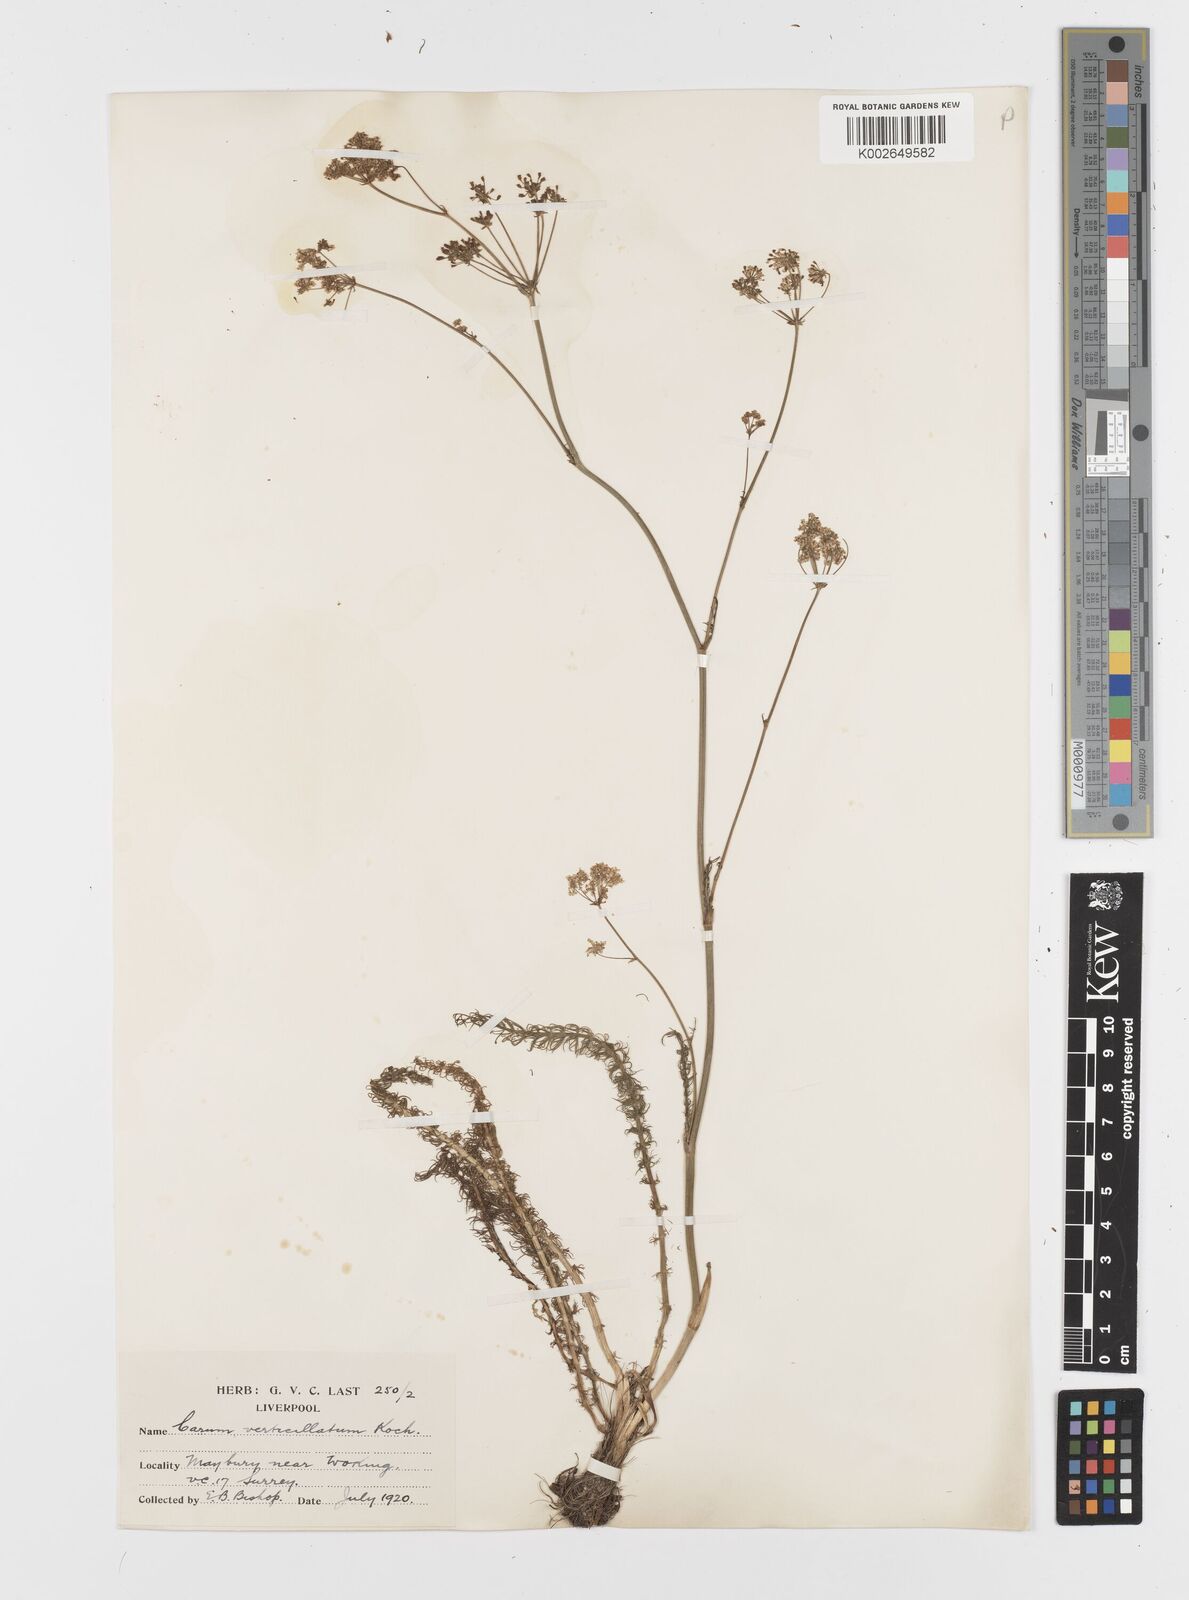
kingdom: Plantae
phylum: Tracheophyta
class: Magnoliopsida
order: Apiales
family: Apiaceae
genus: Trocdaris
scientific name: Trocdaris verticillatum
